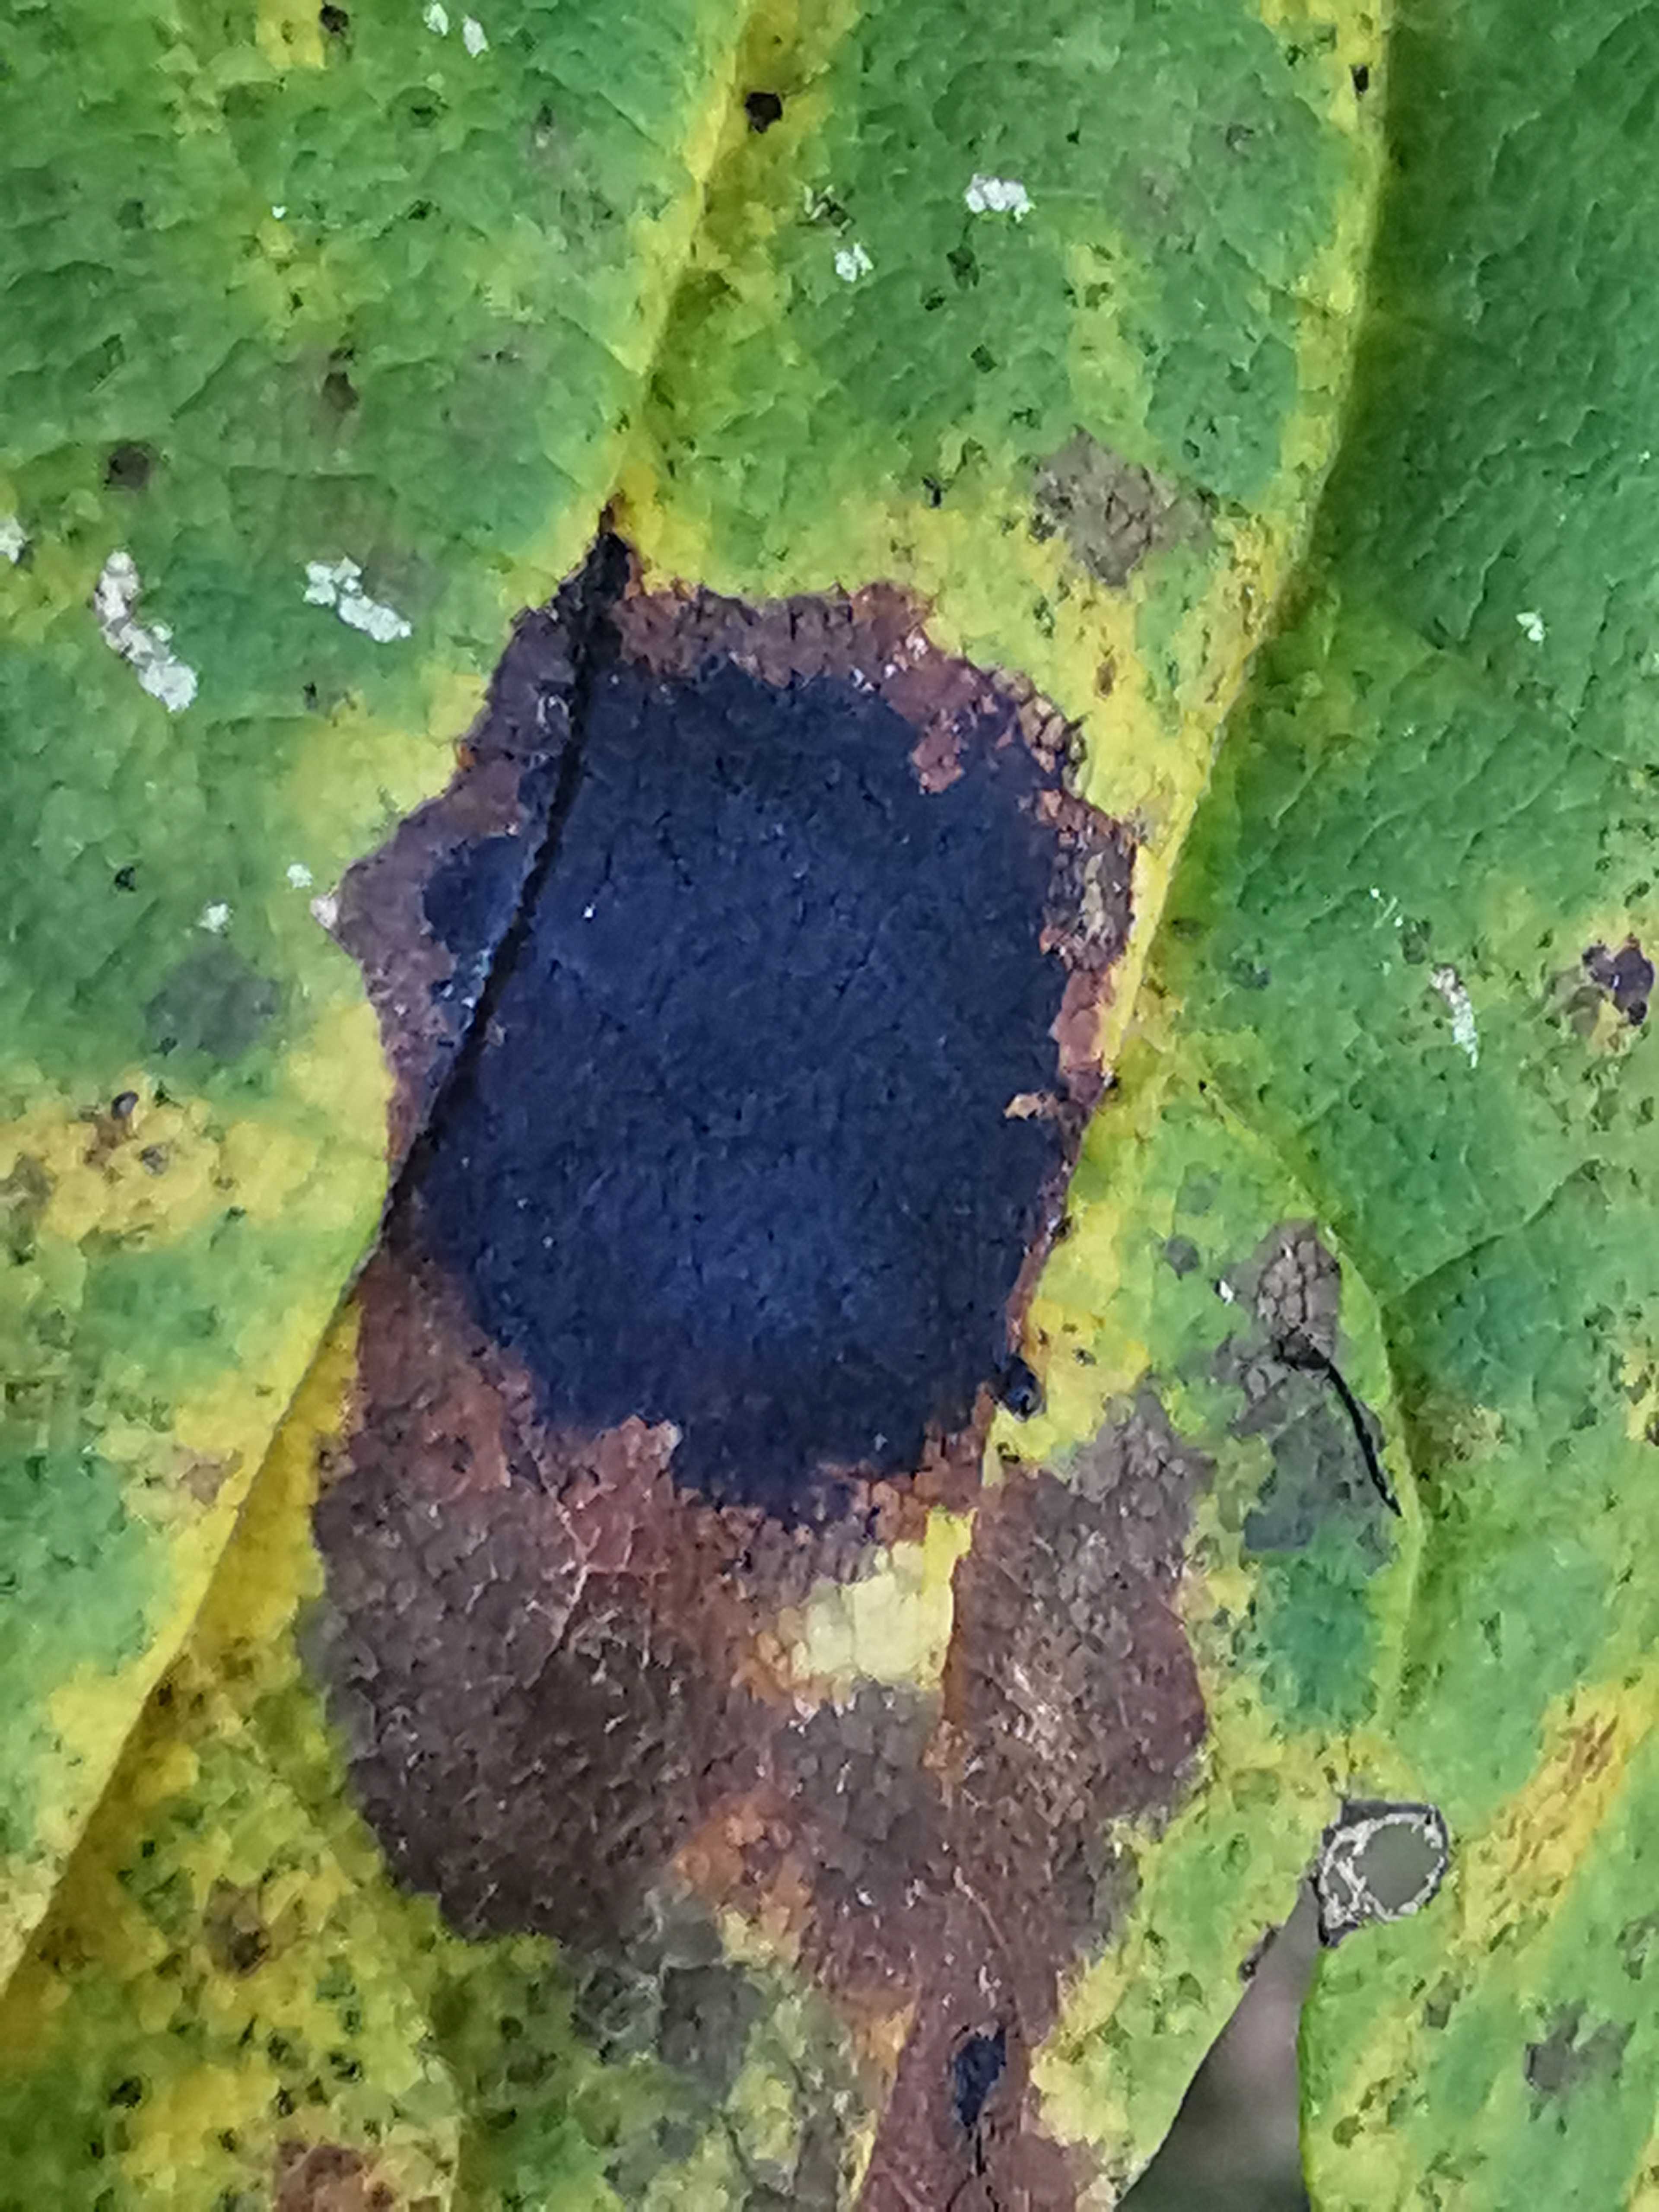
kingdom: Fungi
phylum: Ascomycota
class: Leotiomycetes
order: Rhytismatales
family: Rhytismataceae
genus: Rhytisma
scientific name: Rhytisma acerinum
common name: ahorn-rynkeplet
